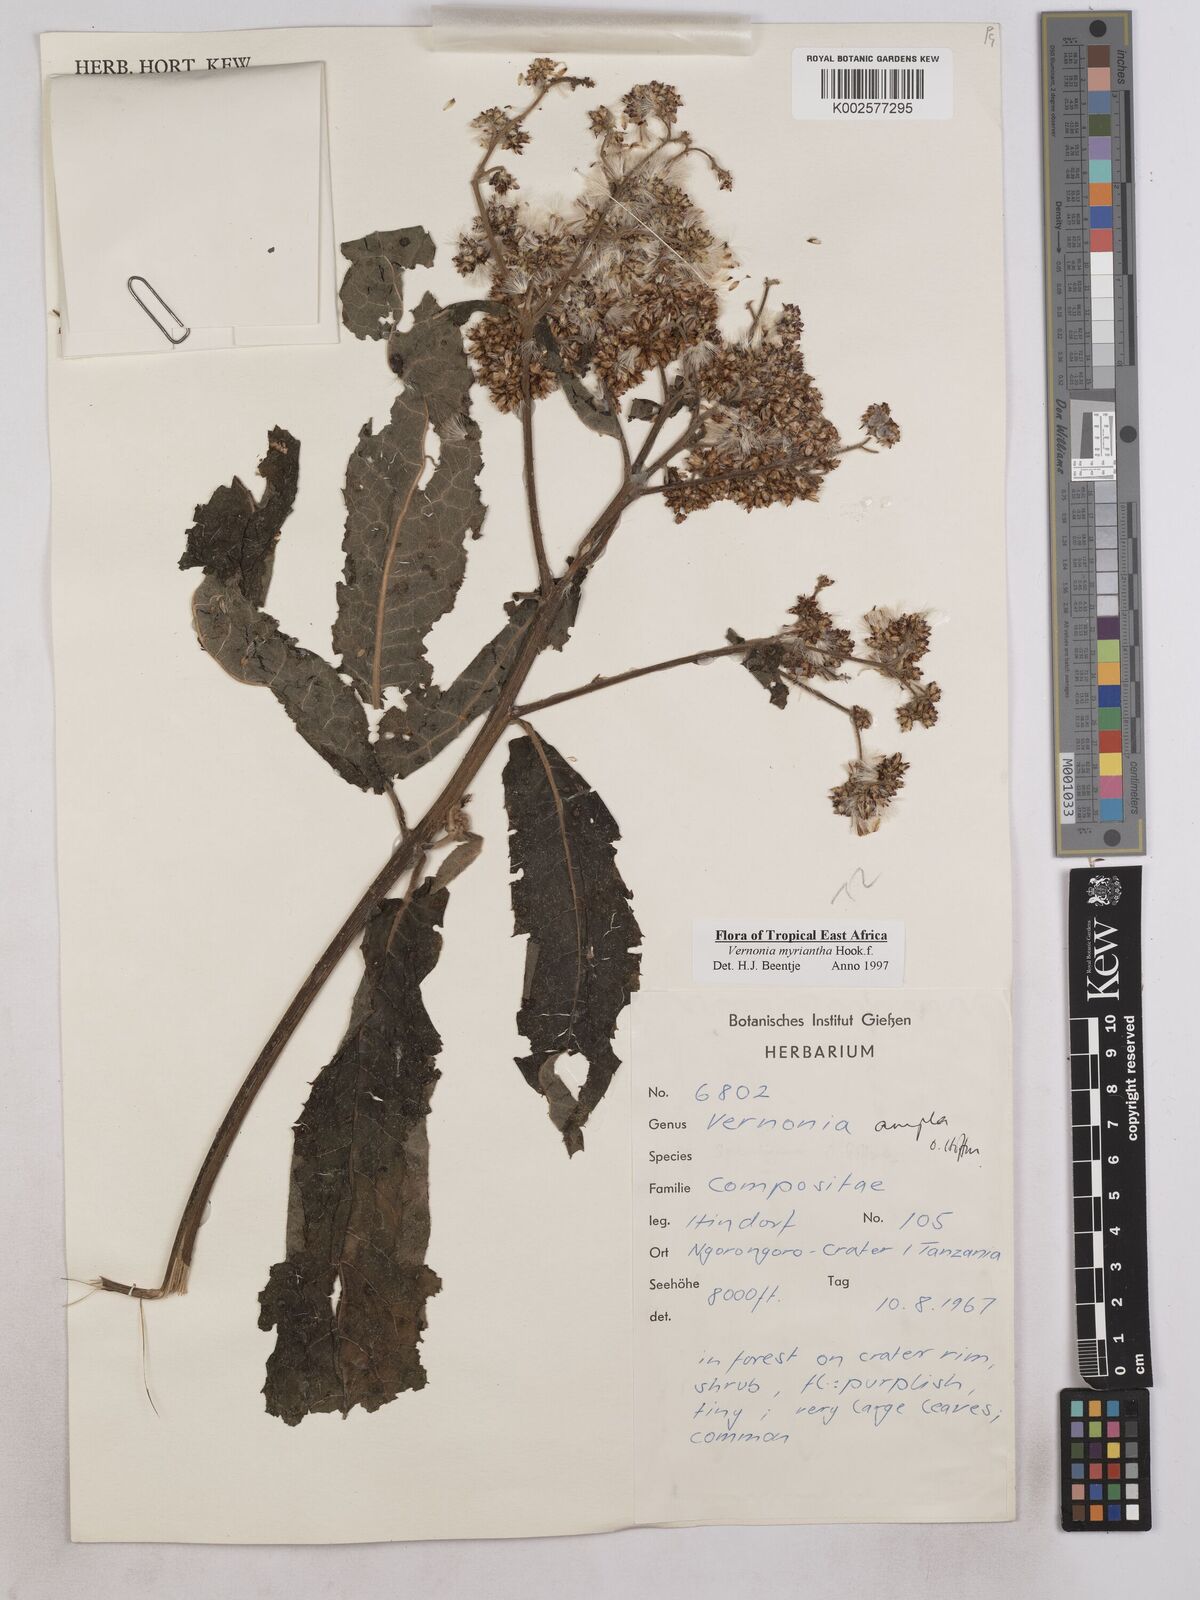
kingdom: Plantae
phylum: Tracheophyta
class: Magnoliopsida
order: Asterales
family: Asteraceae
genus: Gymnanthemum
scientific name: Gymnanthemum myrianthum
